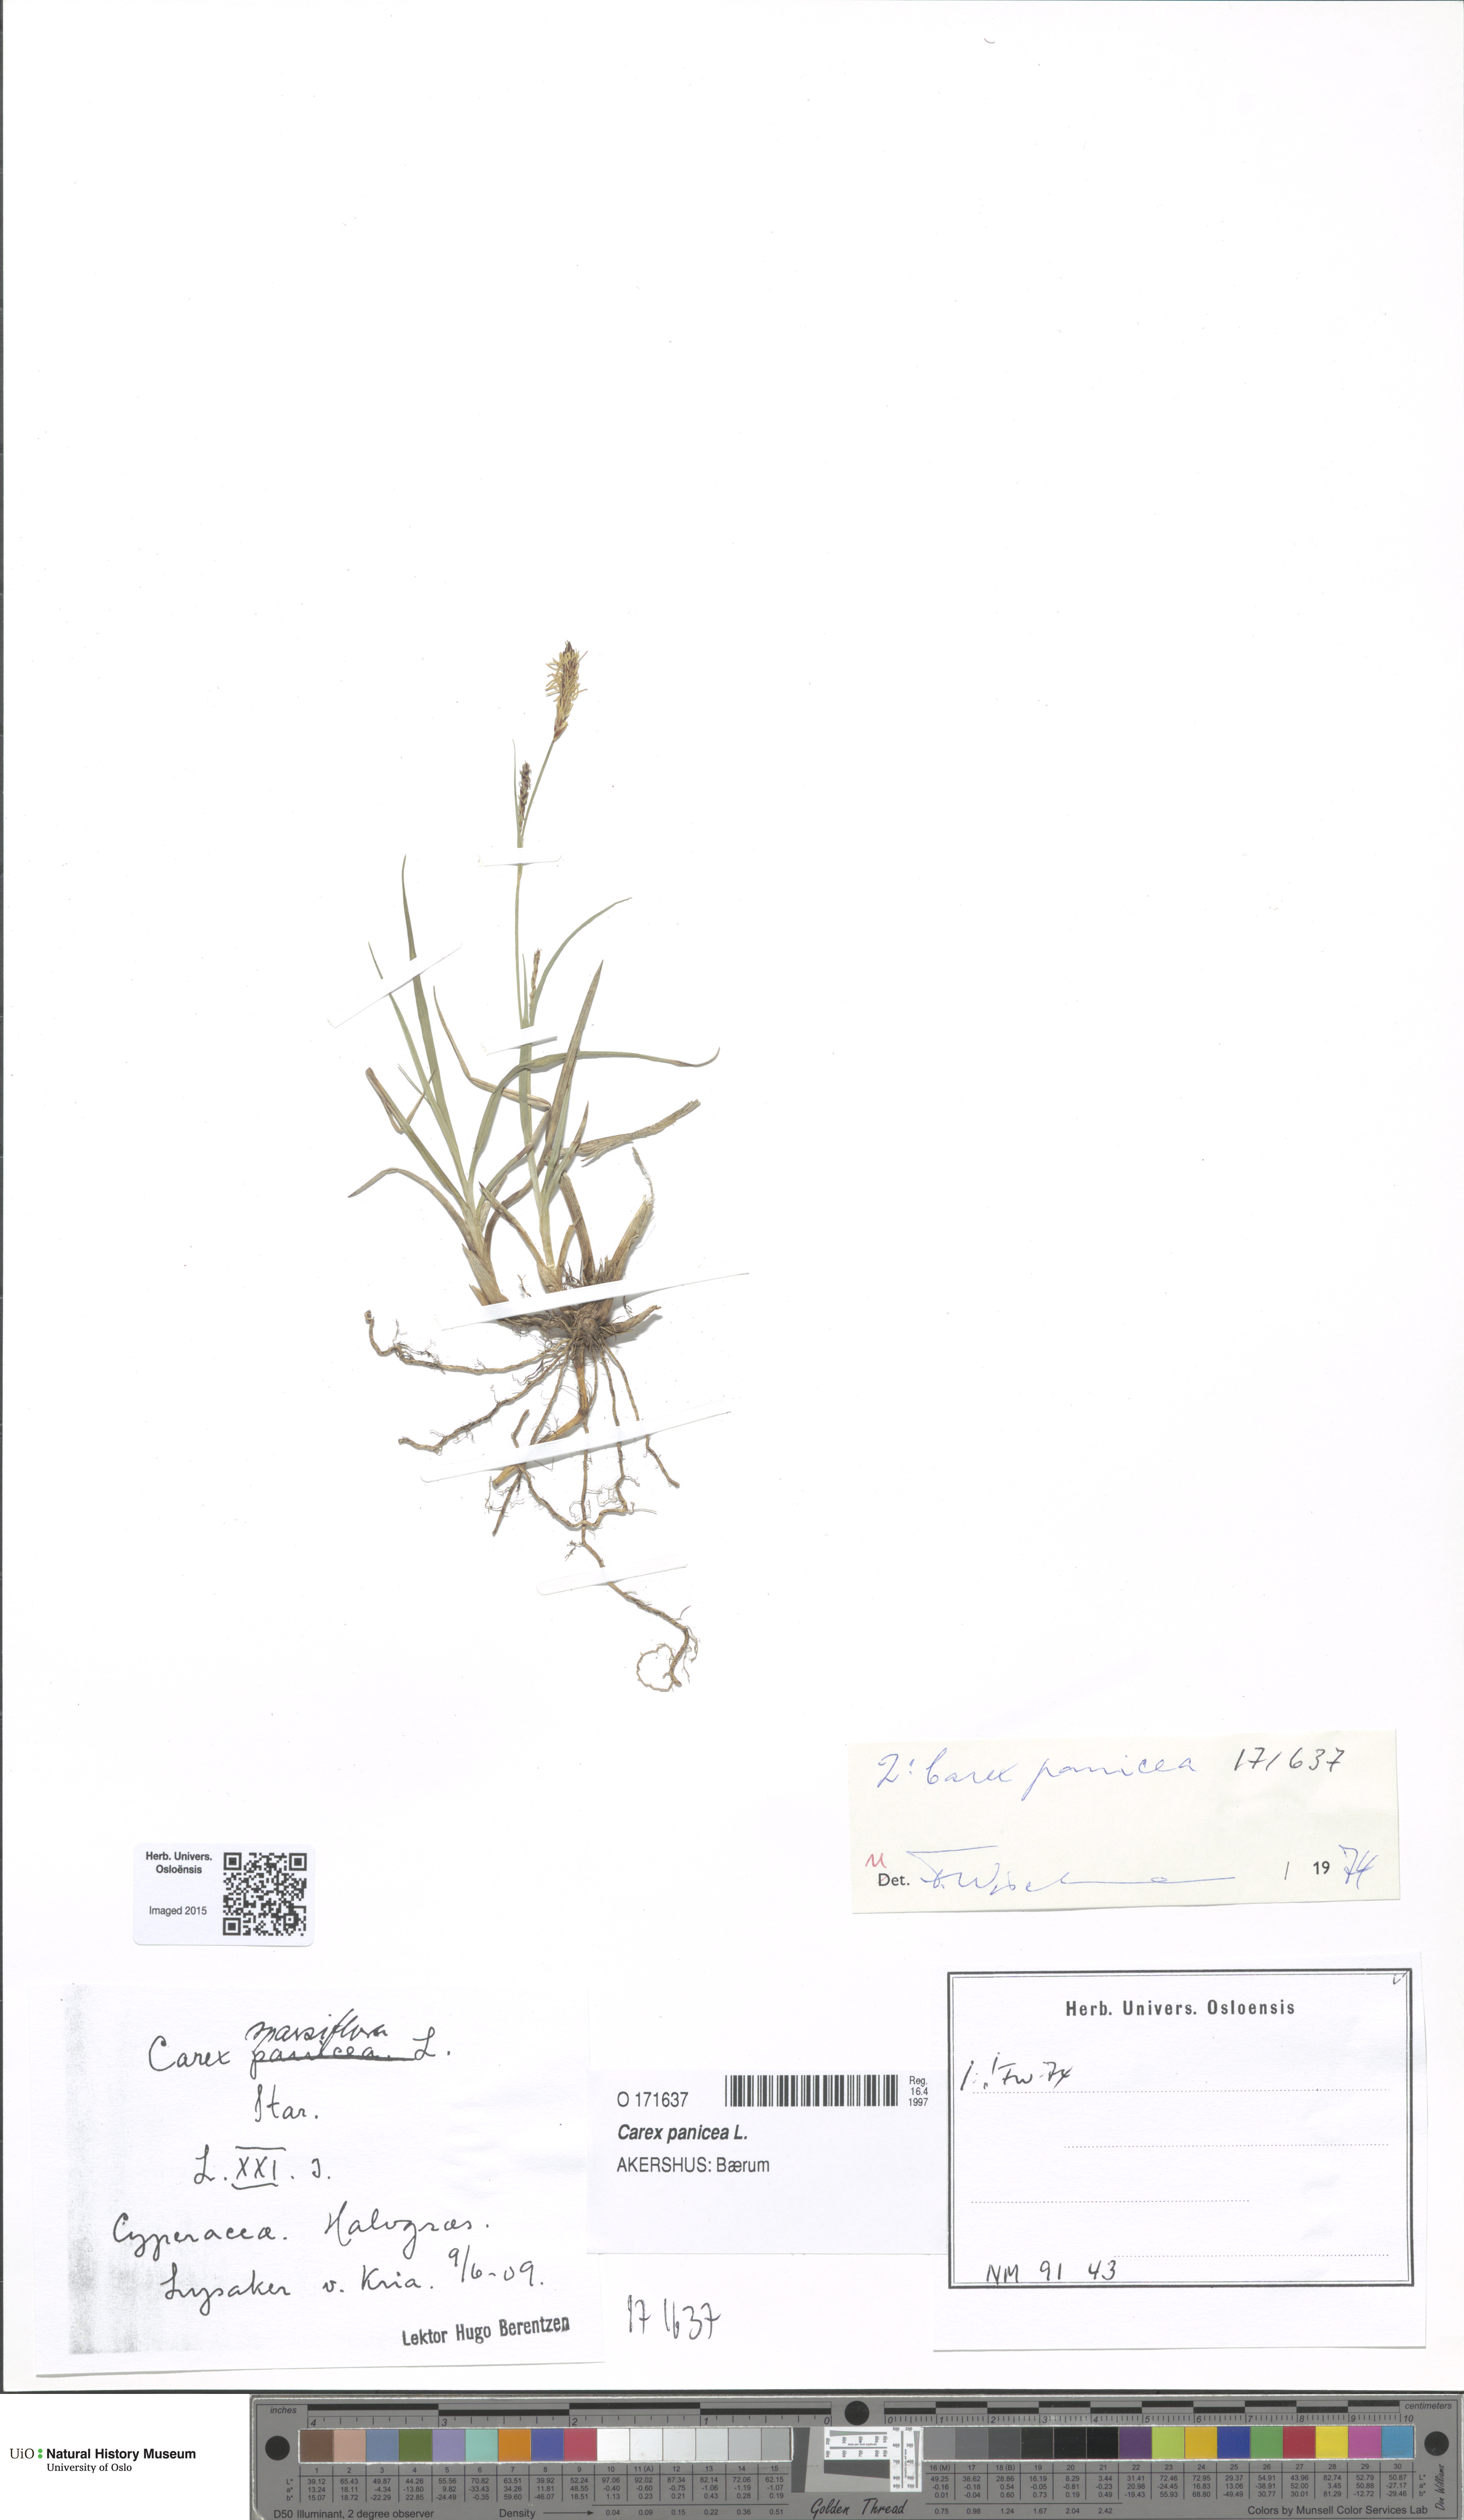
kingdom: Plantae
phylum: Tracheophyta
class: Liliopsida
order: Poales
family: Cyperaceae
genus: Carex
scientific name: Carex panicea
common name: Carnation sedge
